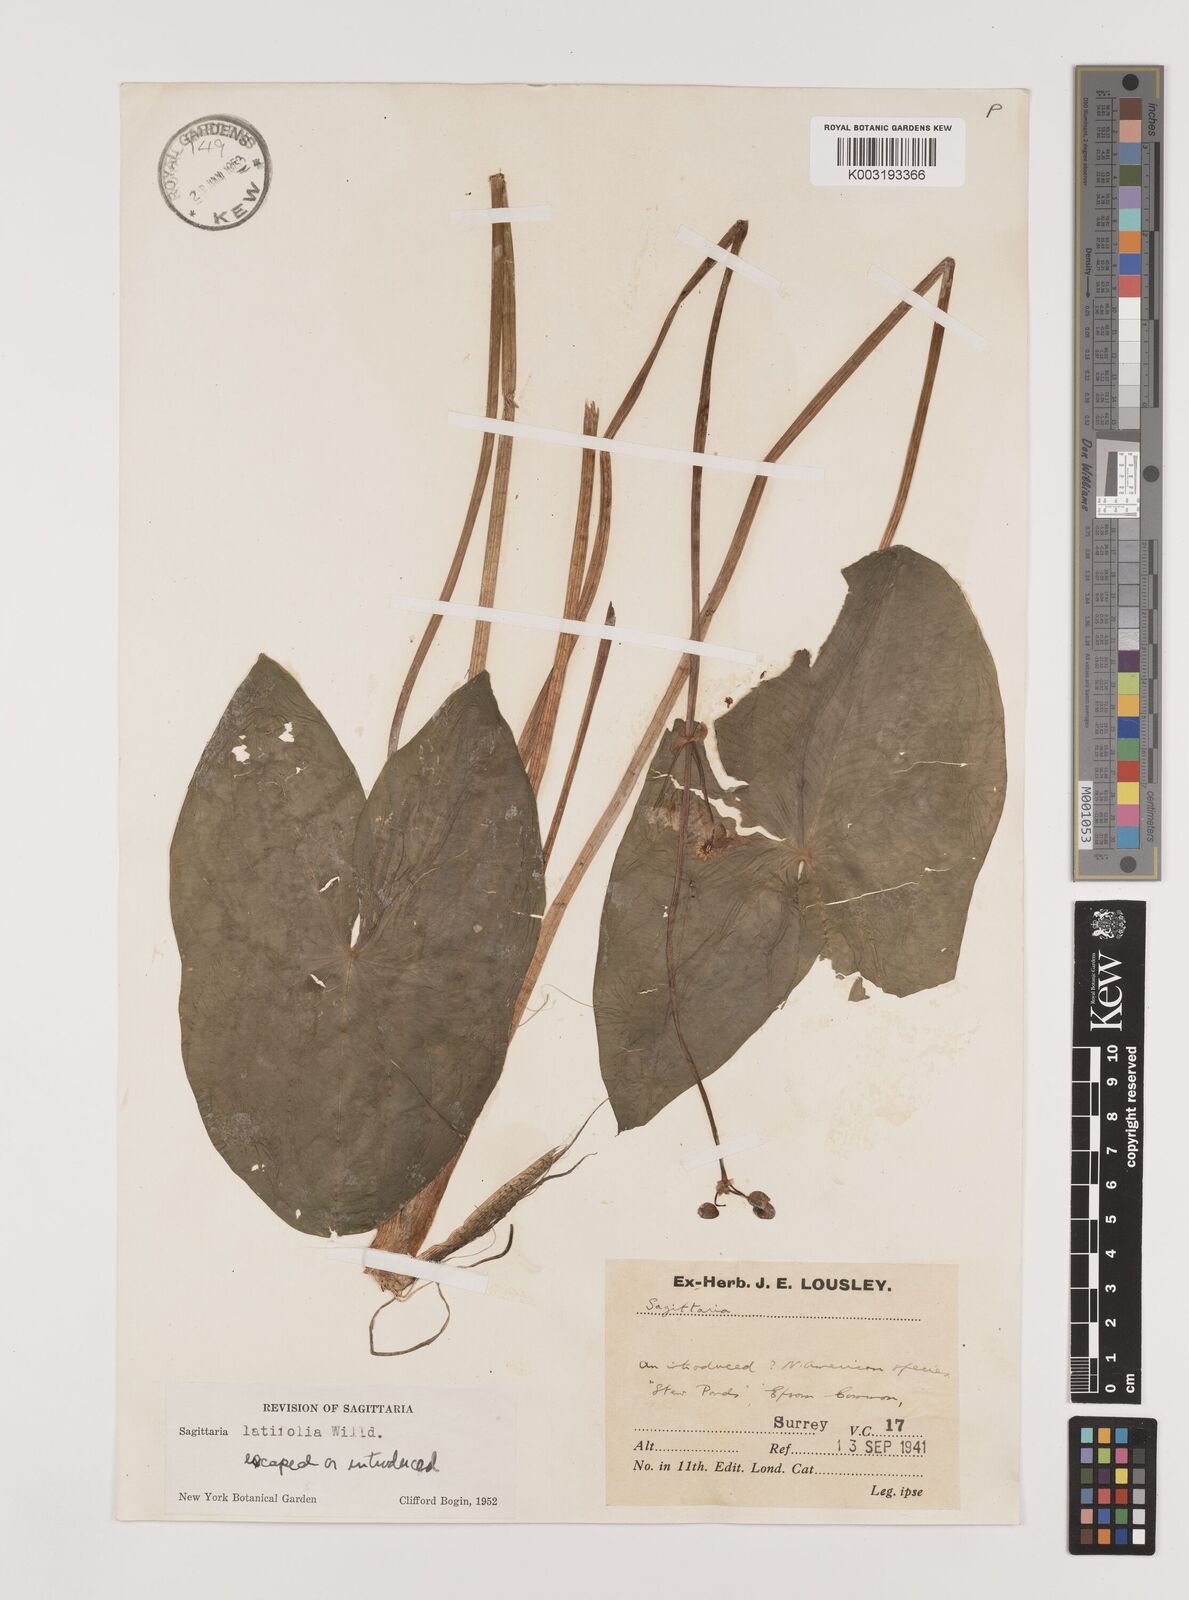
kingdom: Plantae
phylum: Tracheophyta
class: Liliopsida
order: Alismatales
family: Alismataceae
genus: Sagittaria
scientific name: Sagittaria latifolia
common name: Duck-potato
